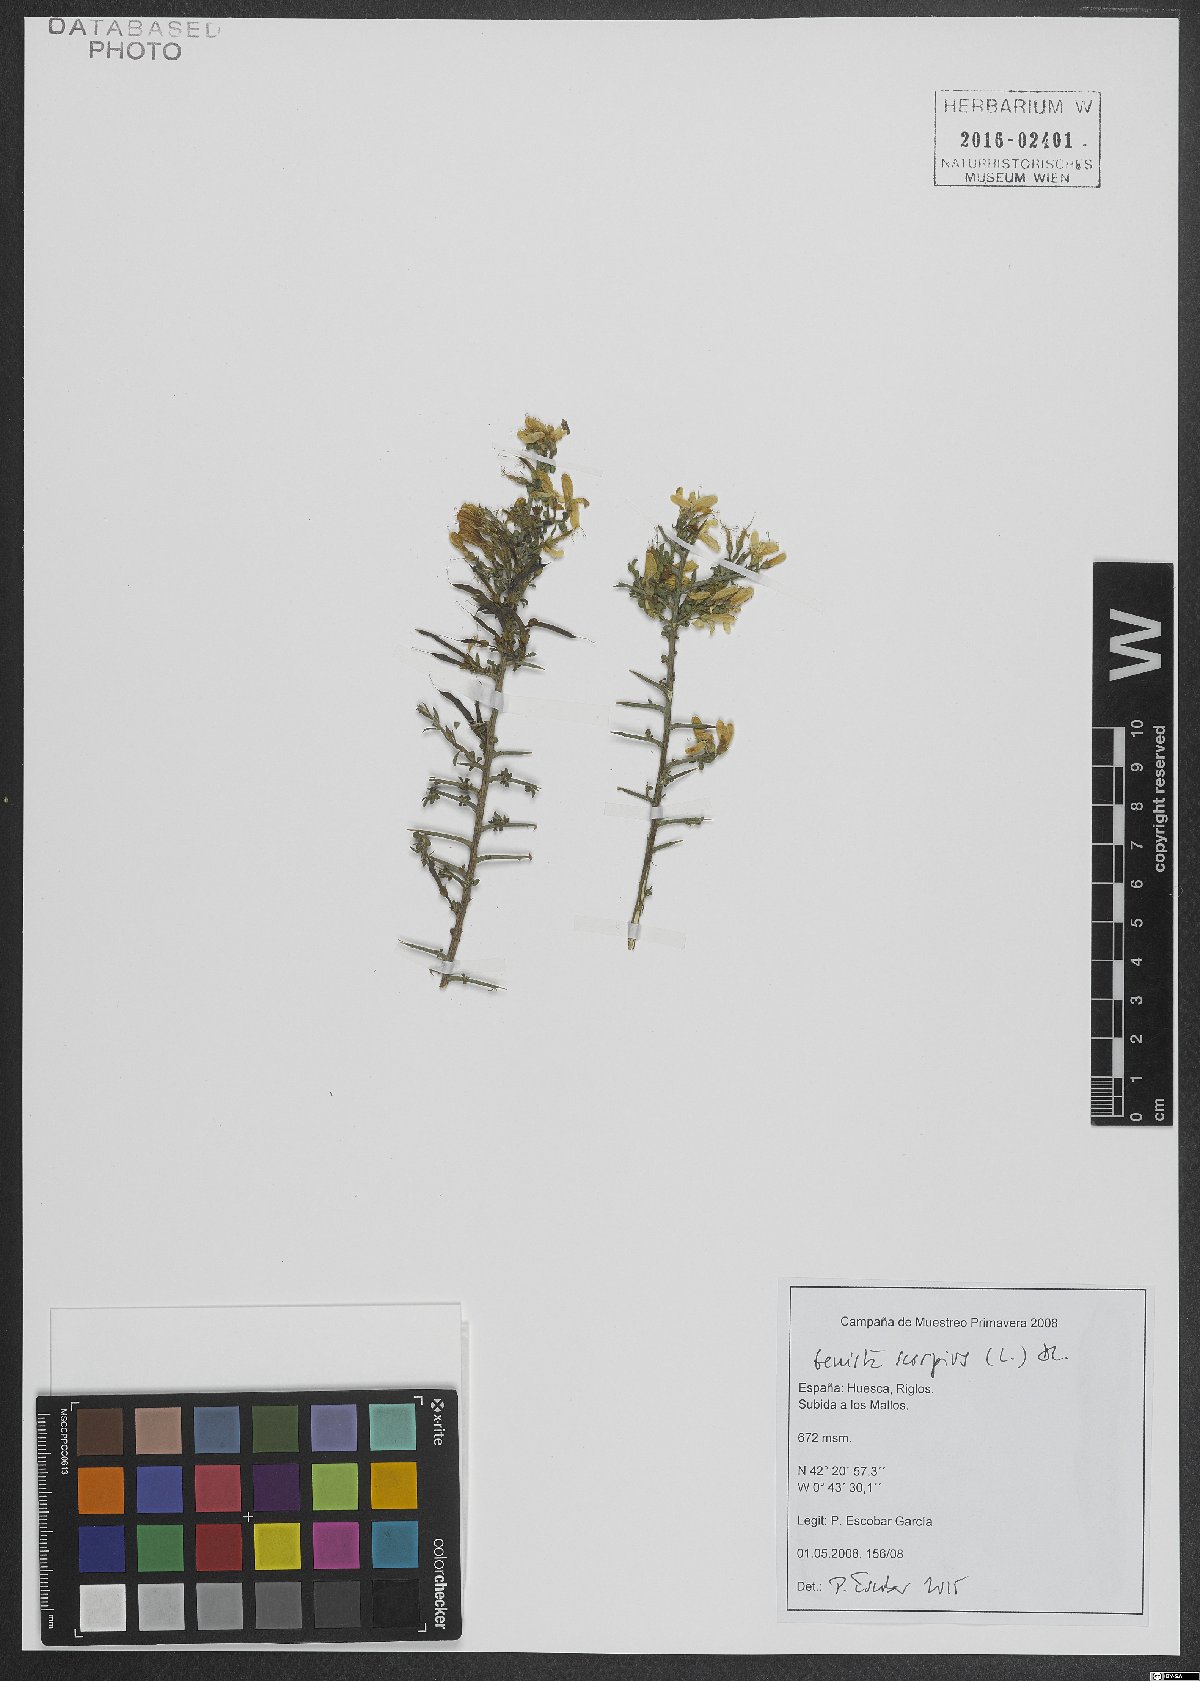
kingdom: Plantae
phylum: Tracheophyta
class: Magnoliopsida
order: Fabales
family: Fabaceae
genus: Genista
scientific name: Genista scorpius
